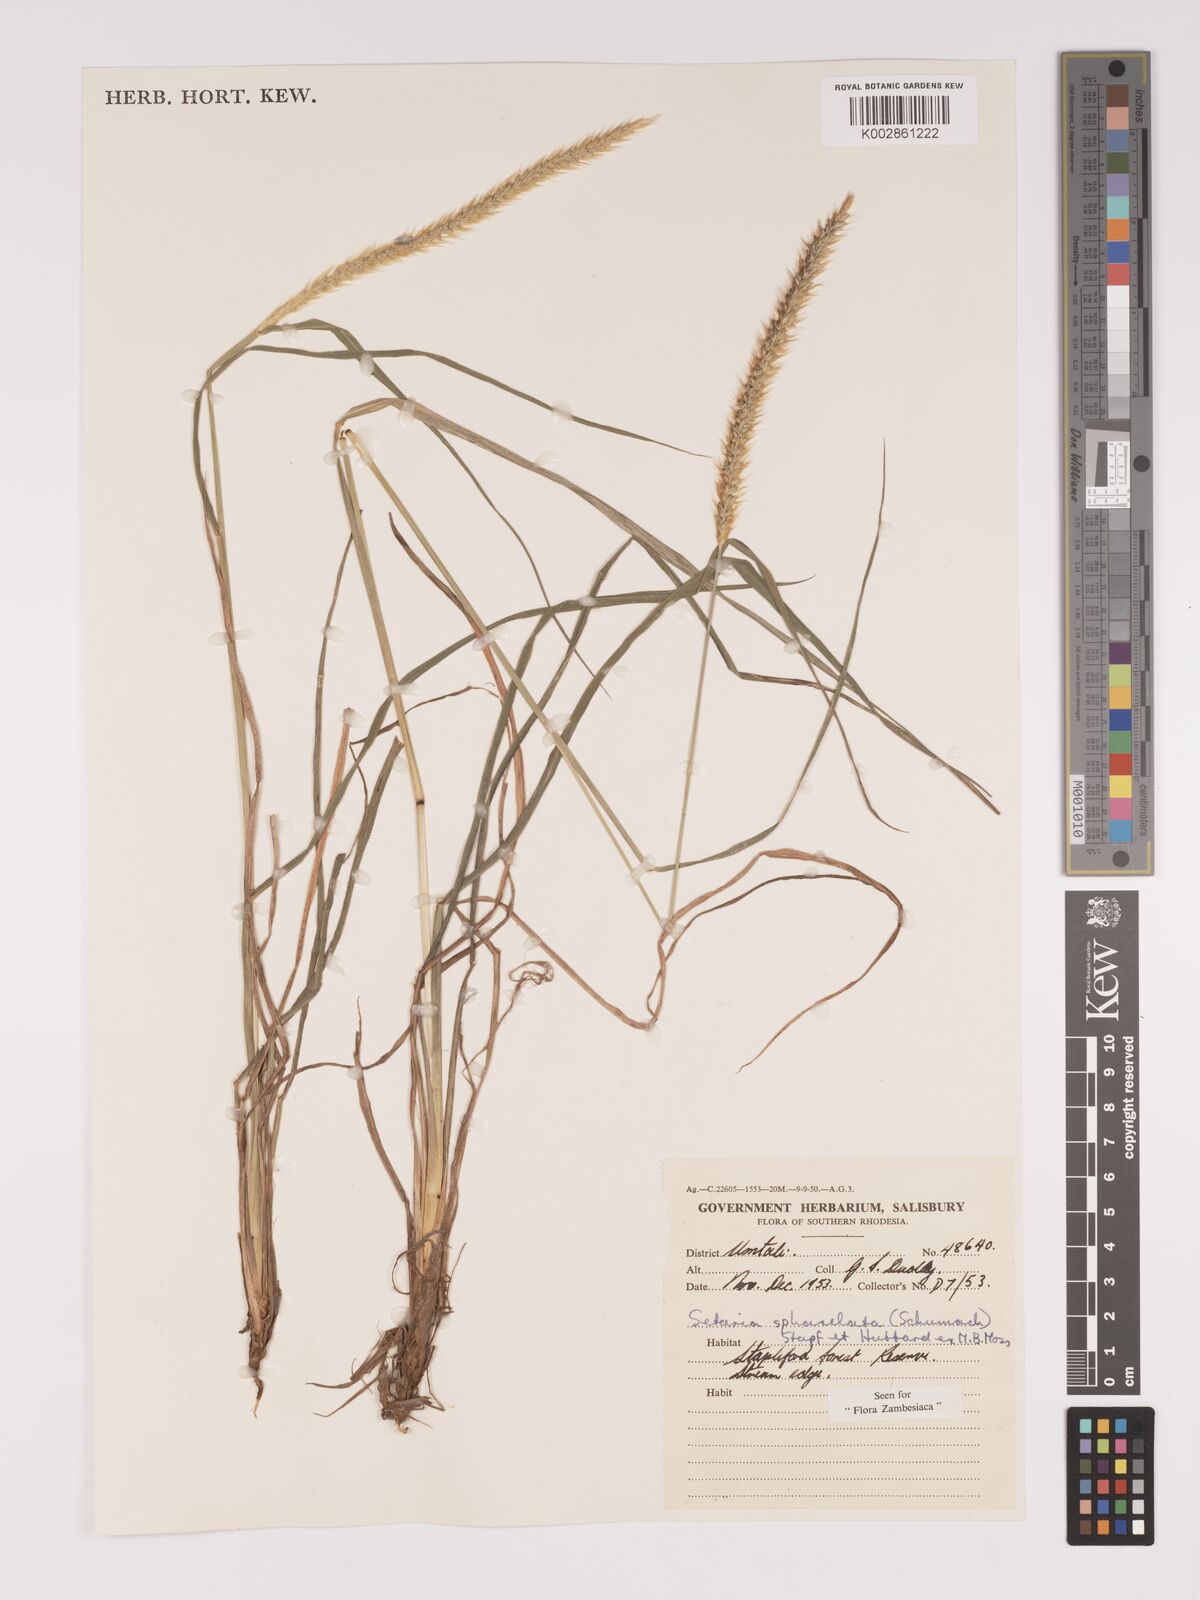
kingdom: Plantae
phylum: Tracheophyta
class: Liliopsida
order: Poales
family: Poaceae
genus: Setaria
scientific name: Setaria sphacelata
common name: African bristlegrass
